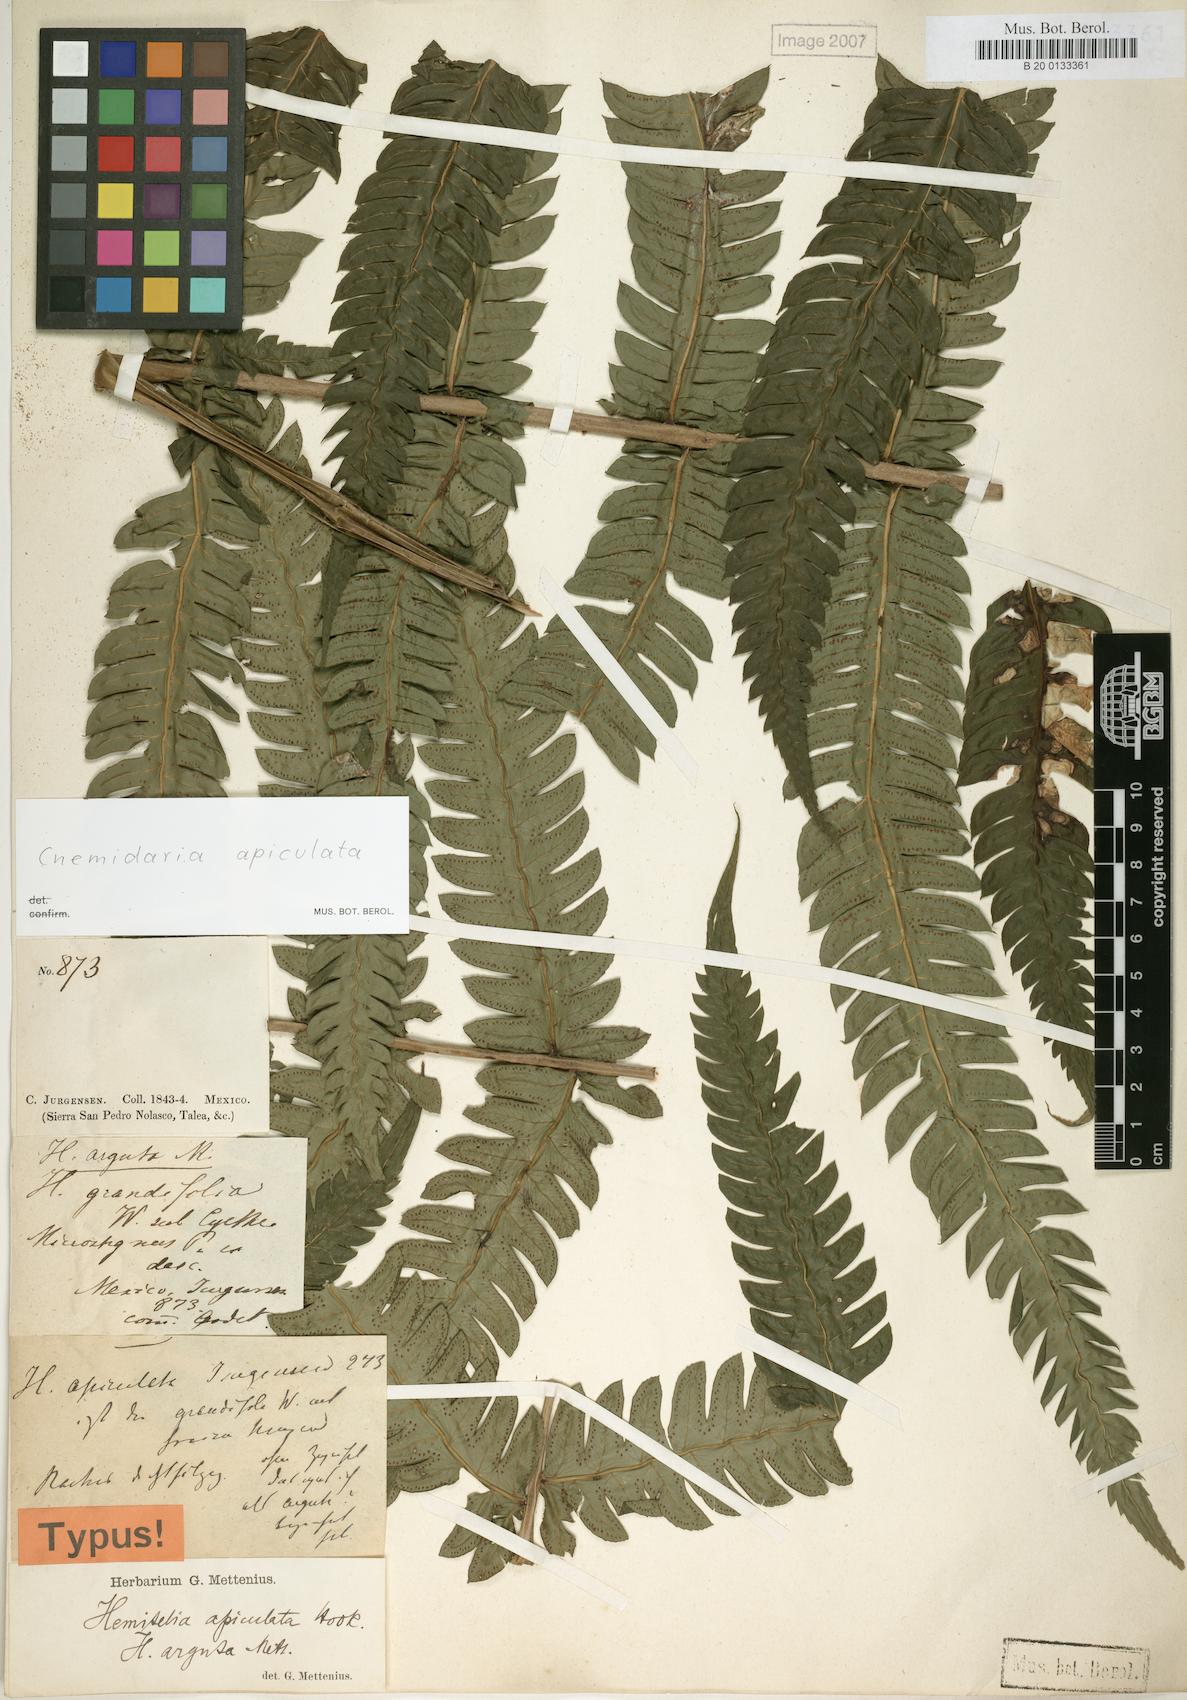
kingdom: Plantae
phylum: Tracheophyta
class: Polypodiopsida
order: Cyatheales
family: Cyatheaceae
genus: Cyathea
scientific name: Cyathea aristata
